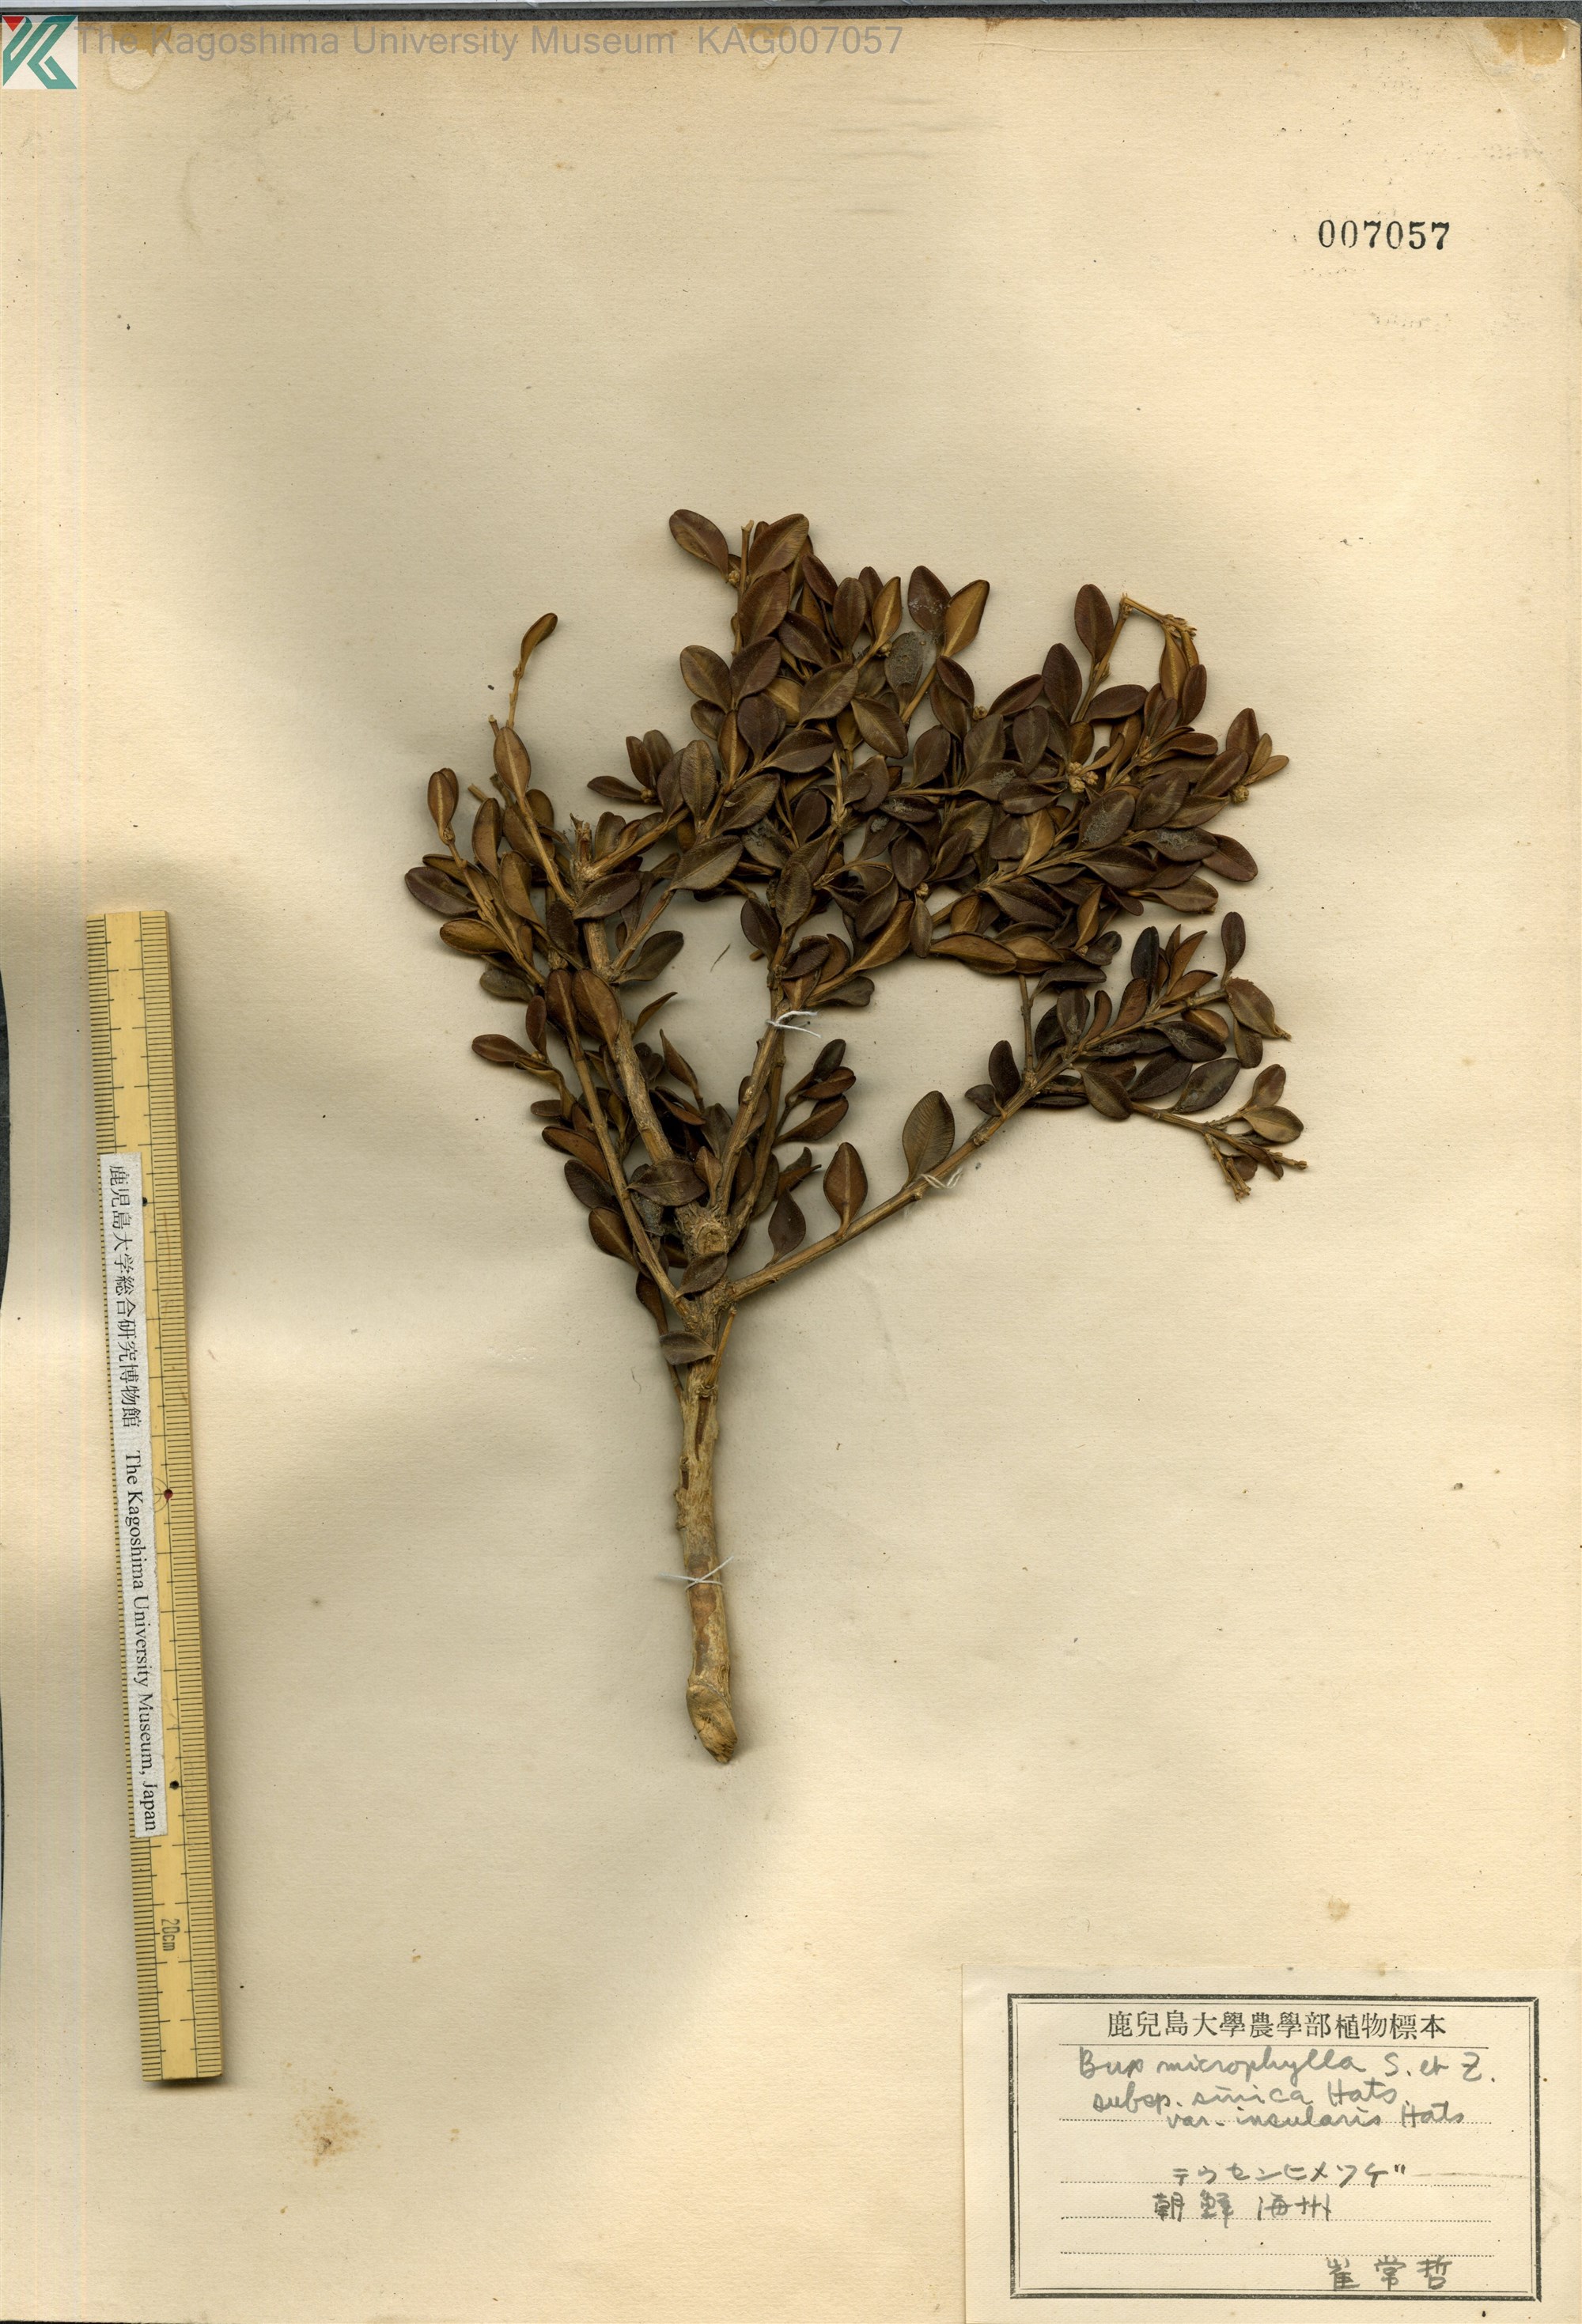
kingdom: Plantae
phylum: Tracheophyta
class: Magnoliopsida
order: Buxales
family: Buxaceae
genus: Buxus
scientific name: Buxus sinica
